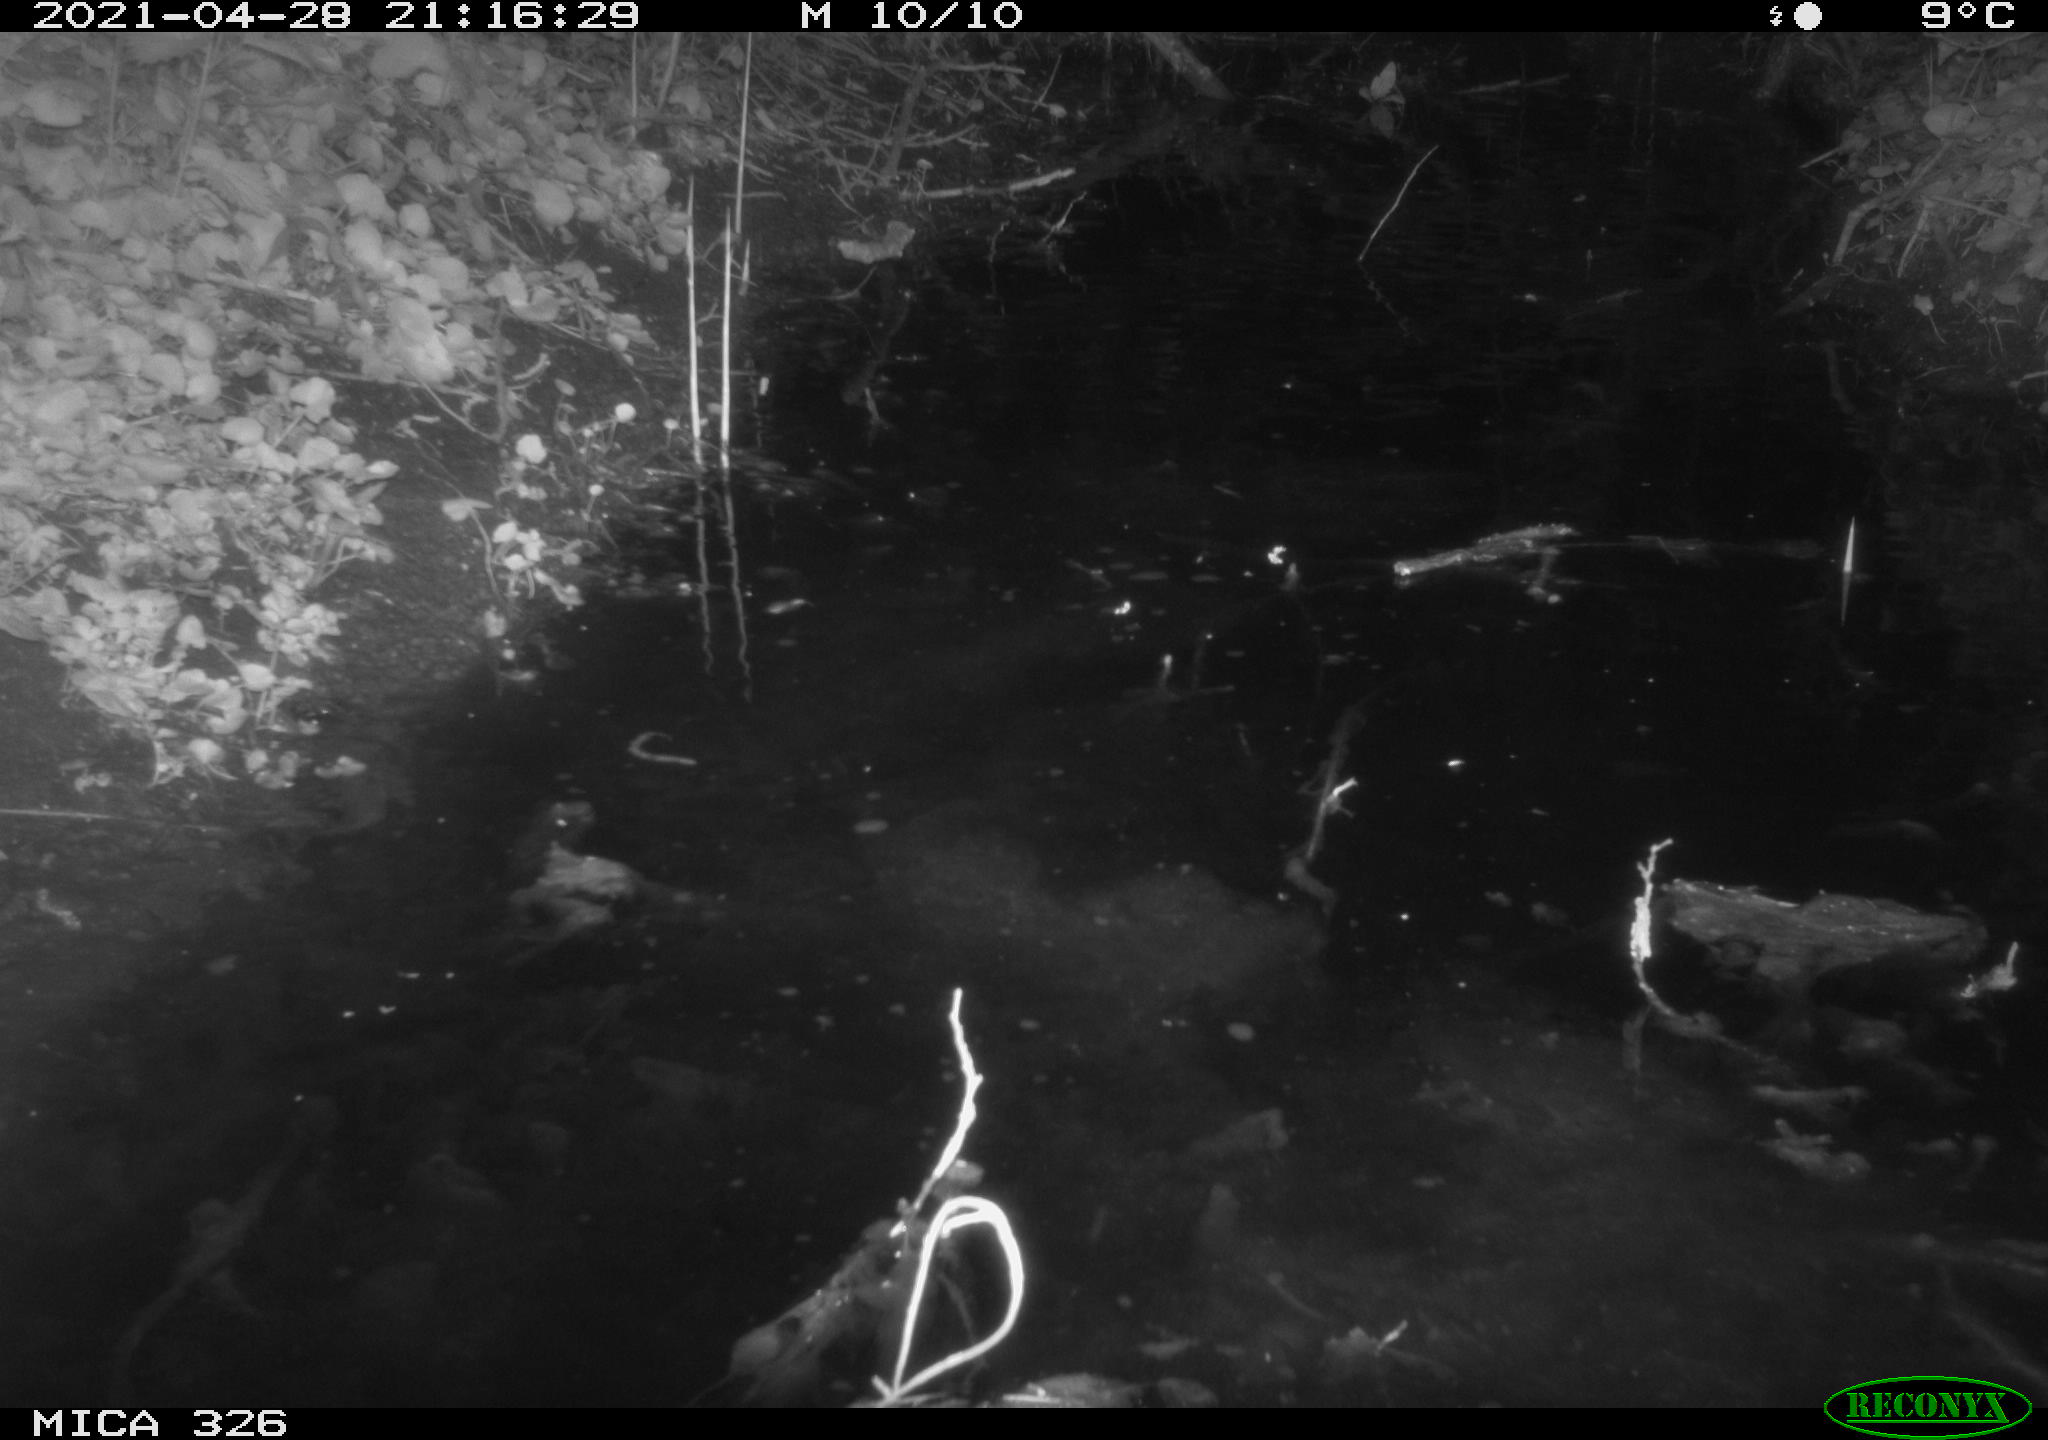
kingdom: Animalia
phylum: Chordata
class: Mammalia
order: Rodentia
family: Myocastoridae
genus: Myocastor
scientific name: Myocastor coypus
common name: Coypu
